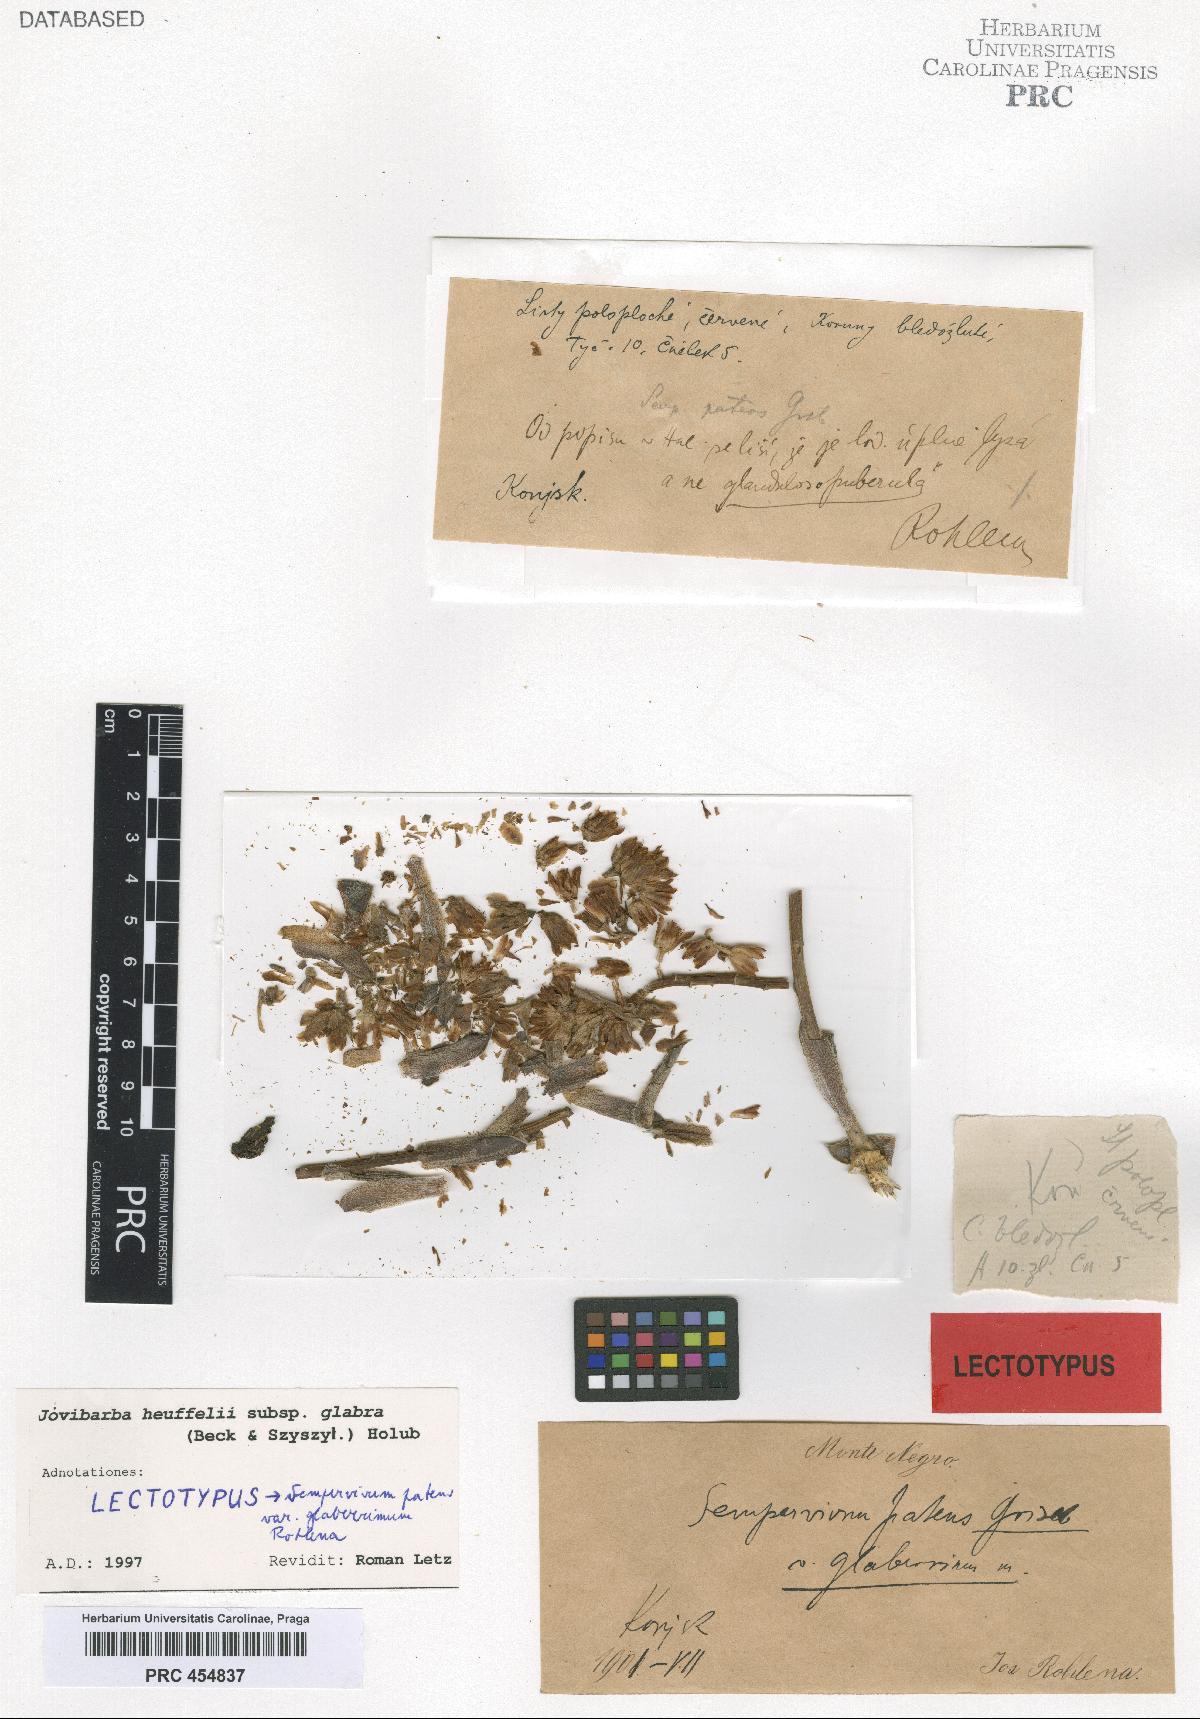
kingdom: Plantae
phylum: Tracheophyta
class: Magnoliopsida
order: Saxifragales
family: Crassulaceae
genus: Sempervivum
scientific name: Sempervivum heuffelii
